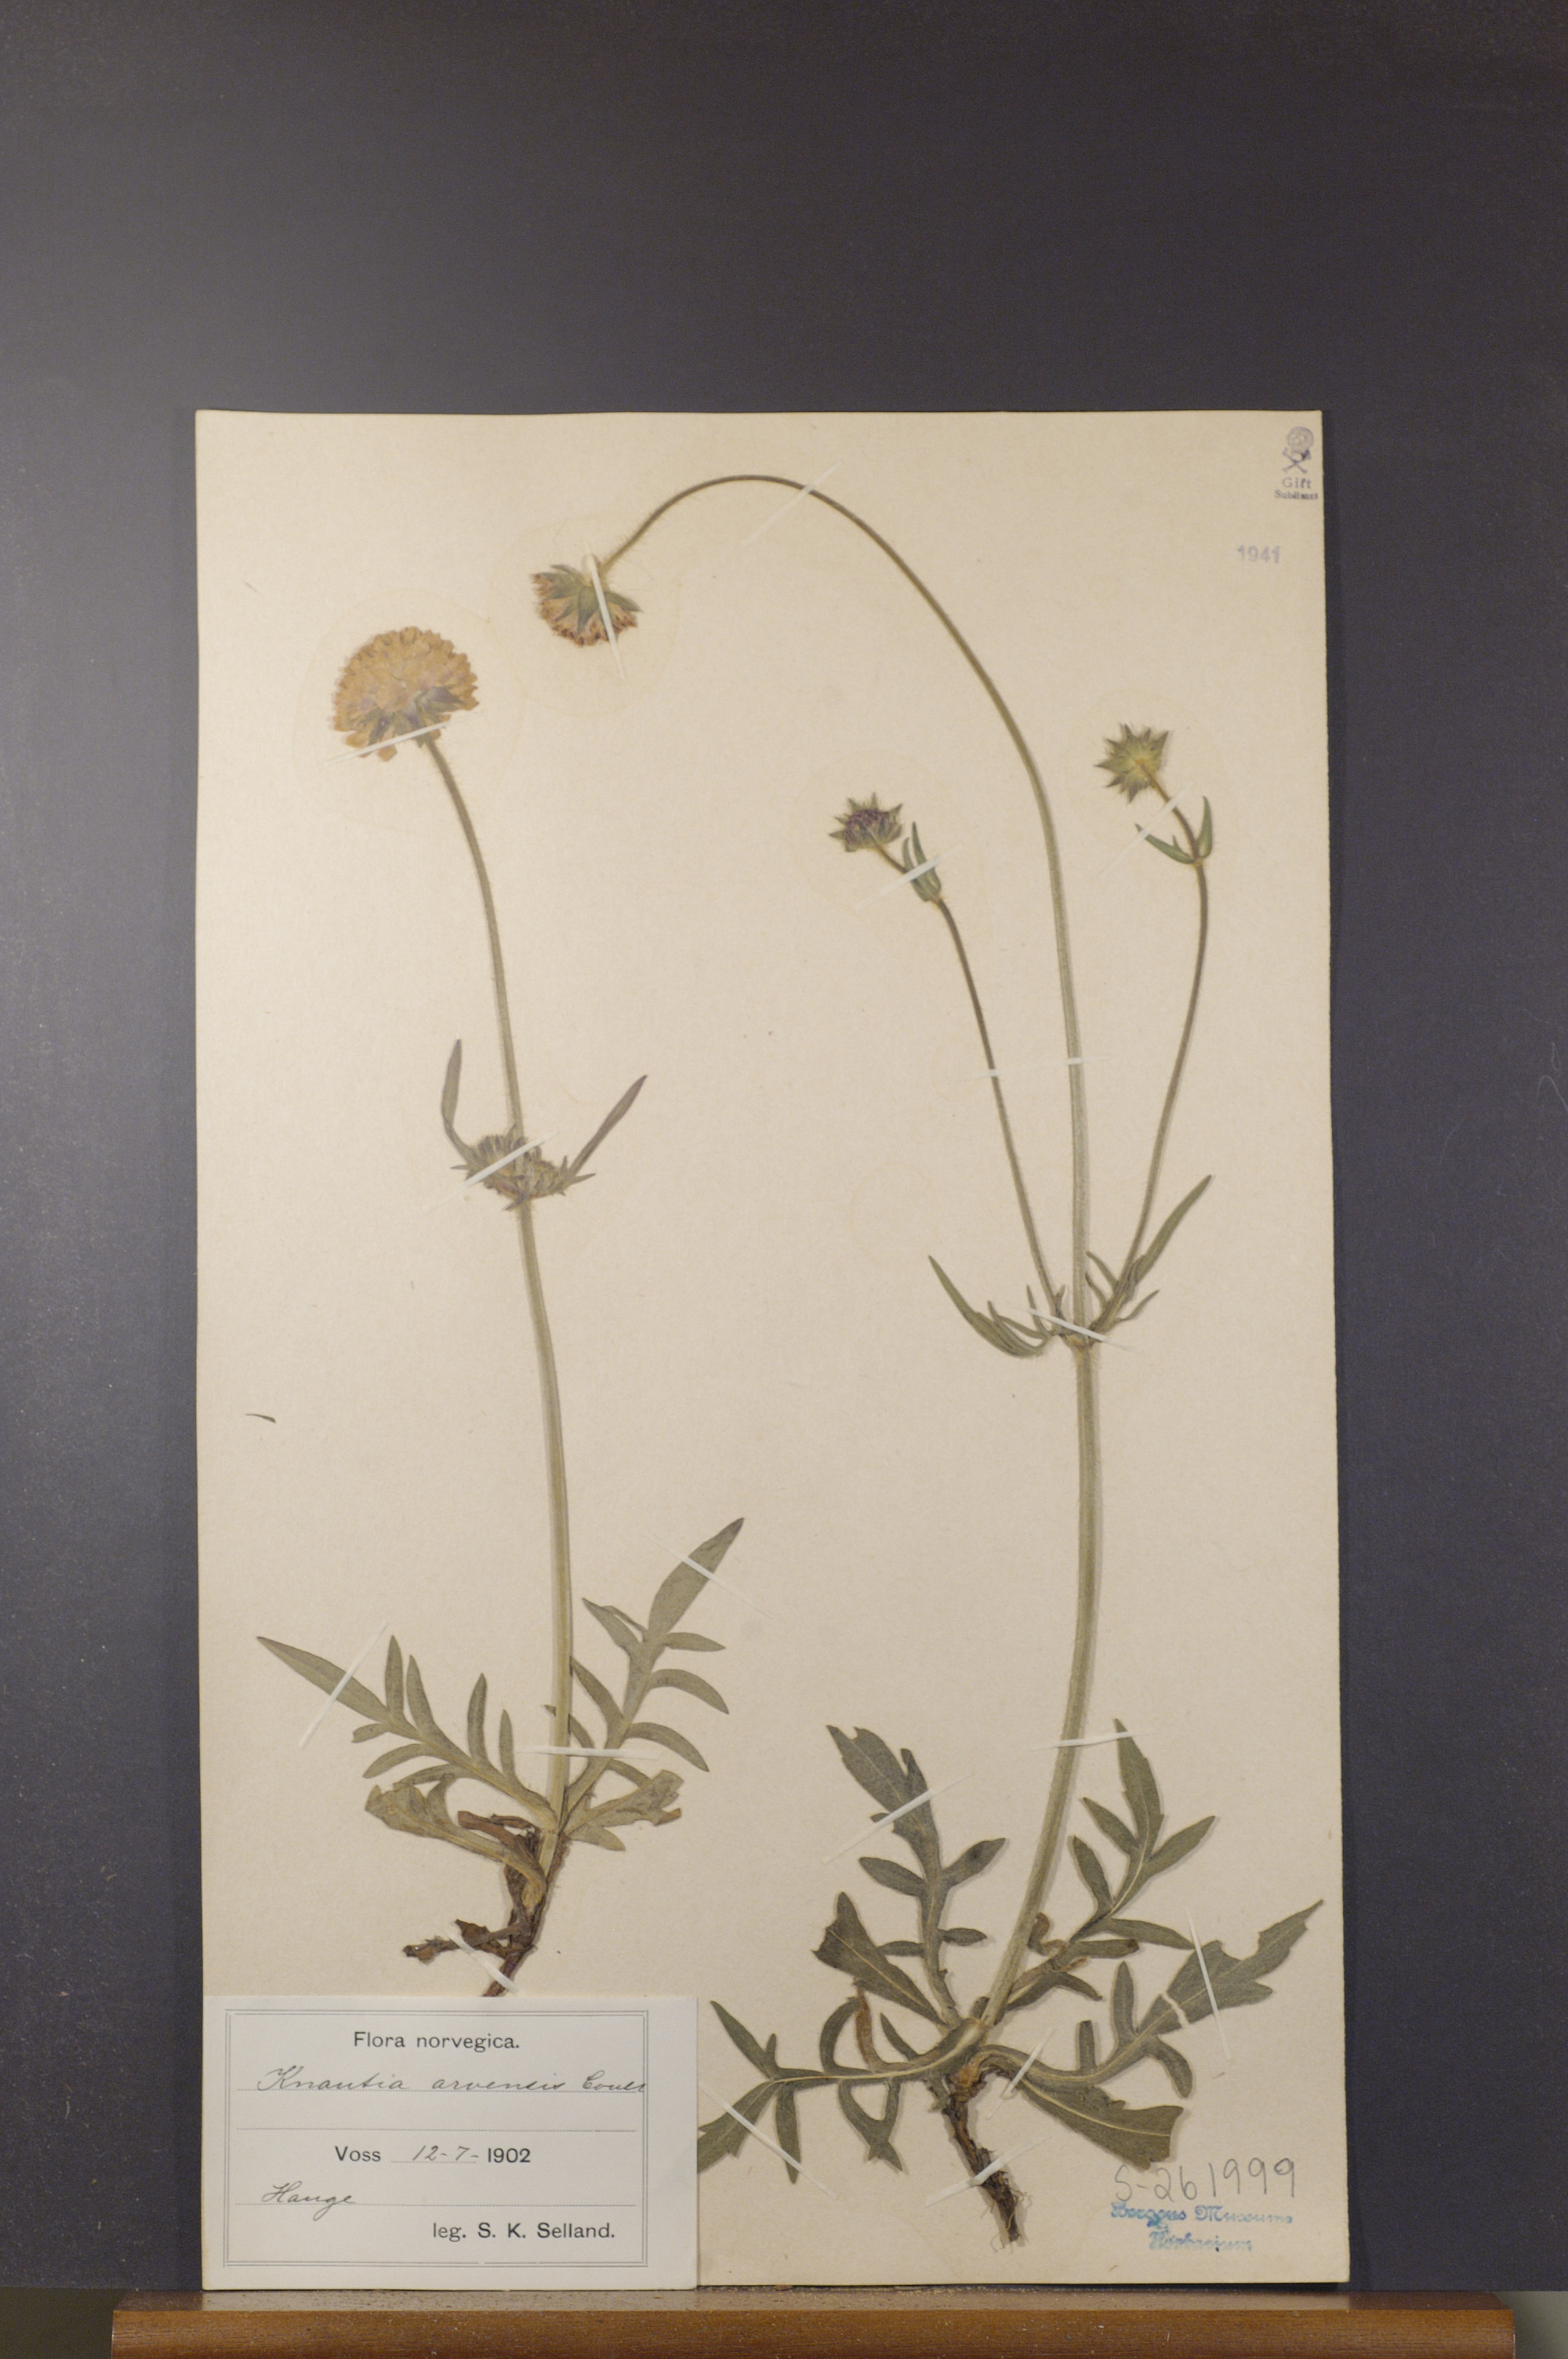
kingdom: Plantae
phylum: Tracheophyta
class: Magnoliopsida
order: Dipsacales
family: Caprifoliaceae
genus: Knautia
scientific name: Knautia arvensis
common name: Field scabiosa
